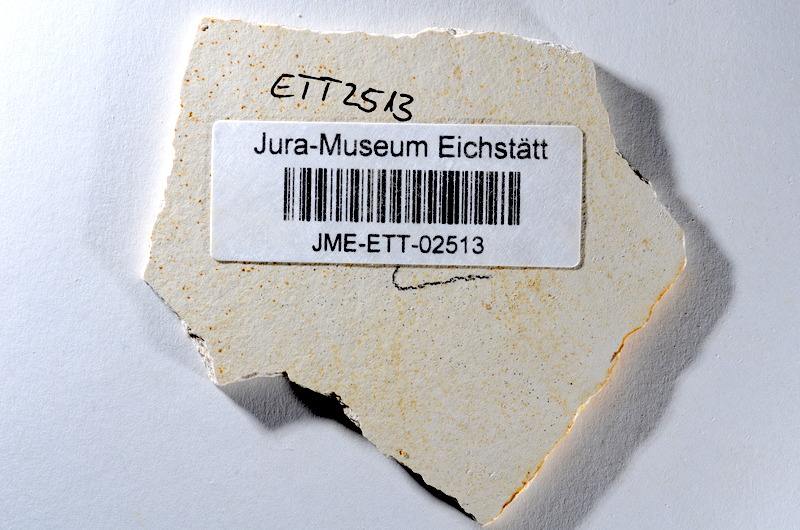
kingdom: Animalia
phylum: Chordata
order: Salmoniformes
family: Orthogonikleithridae
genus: Orthogonikleithrus
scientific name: Orthogonikleithrus hoelli
